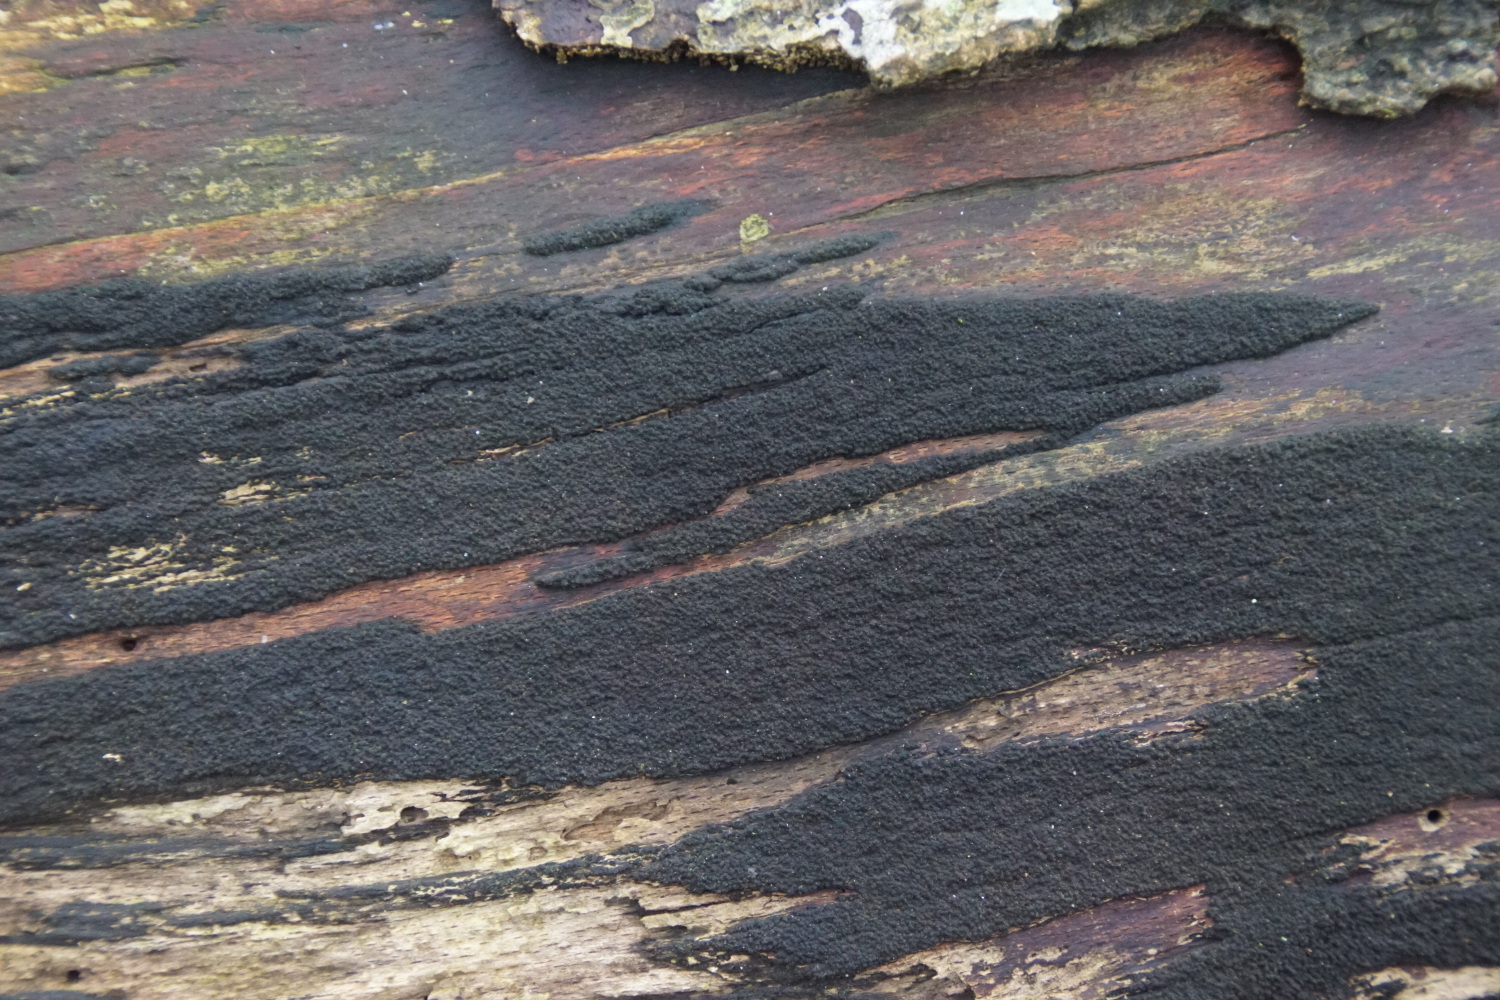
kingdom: Fungi
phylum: Ascomycota
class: Sordariomycetes
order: Xylariales
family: Diatrypaceae
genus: Eutypa
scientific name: Eutypa spinosa
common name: grov kulskorpe
